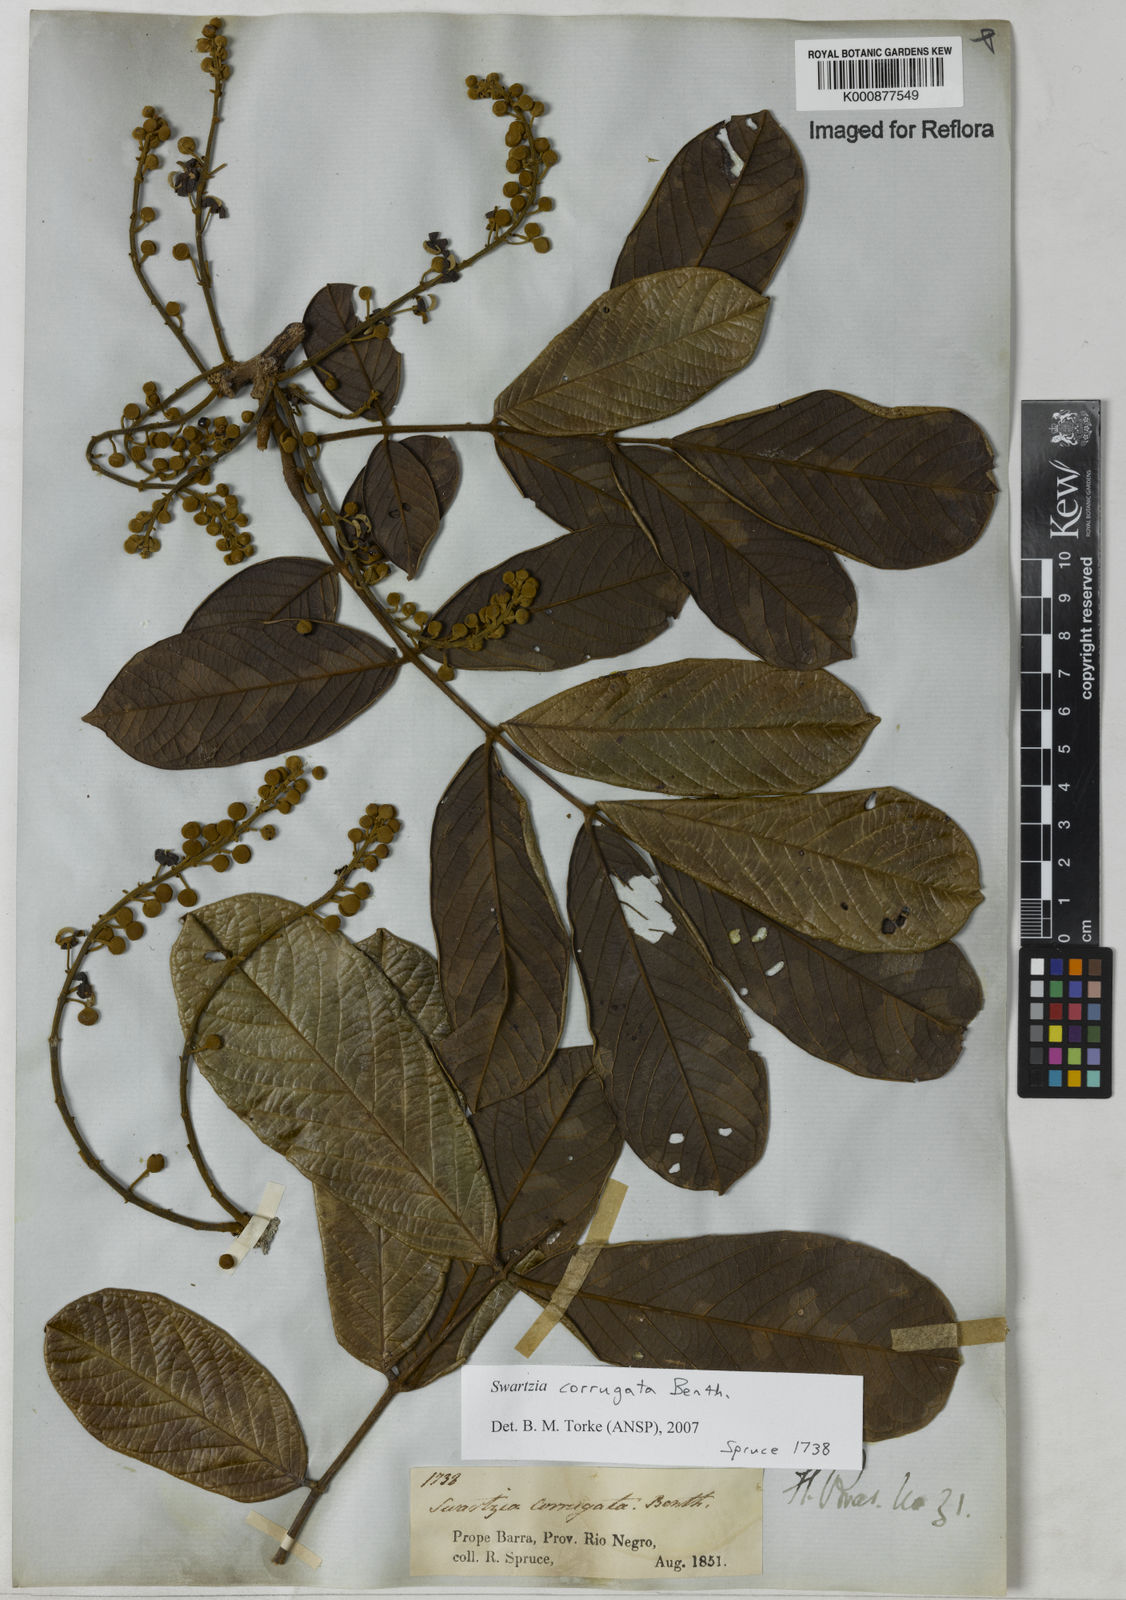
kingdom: Plantae
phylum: Tracheophyta
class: Magnoliopsida
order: Fabales
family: Fabaceae
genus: Swartzia
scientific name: Swartzia corrugata
